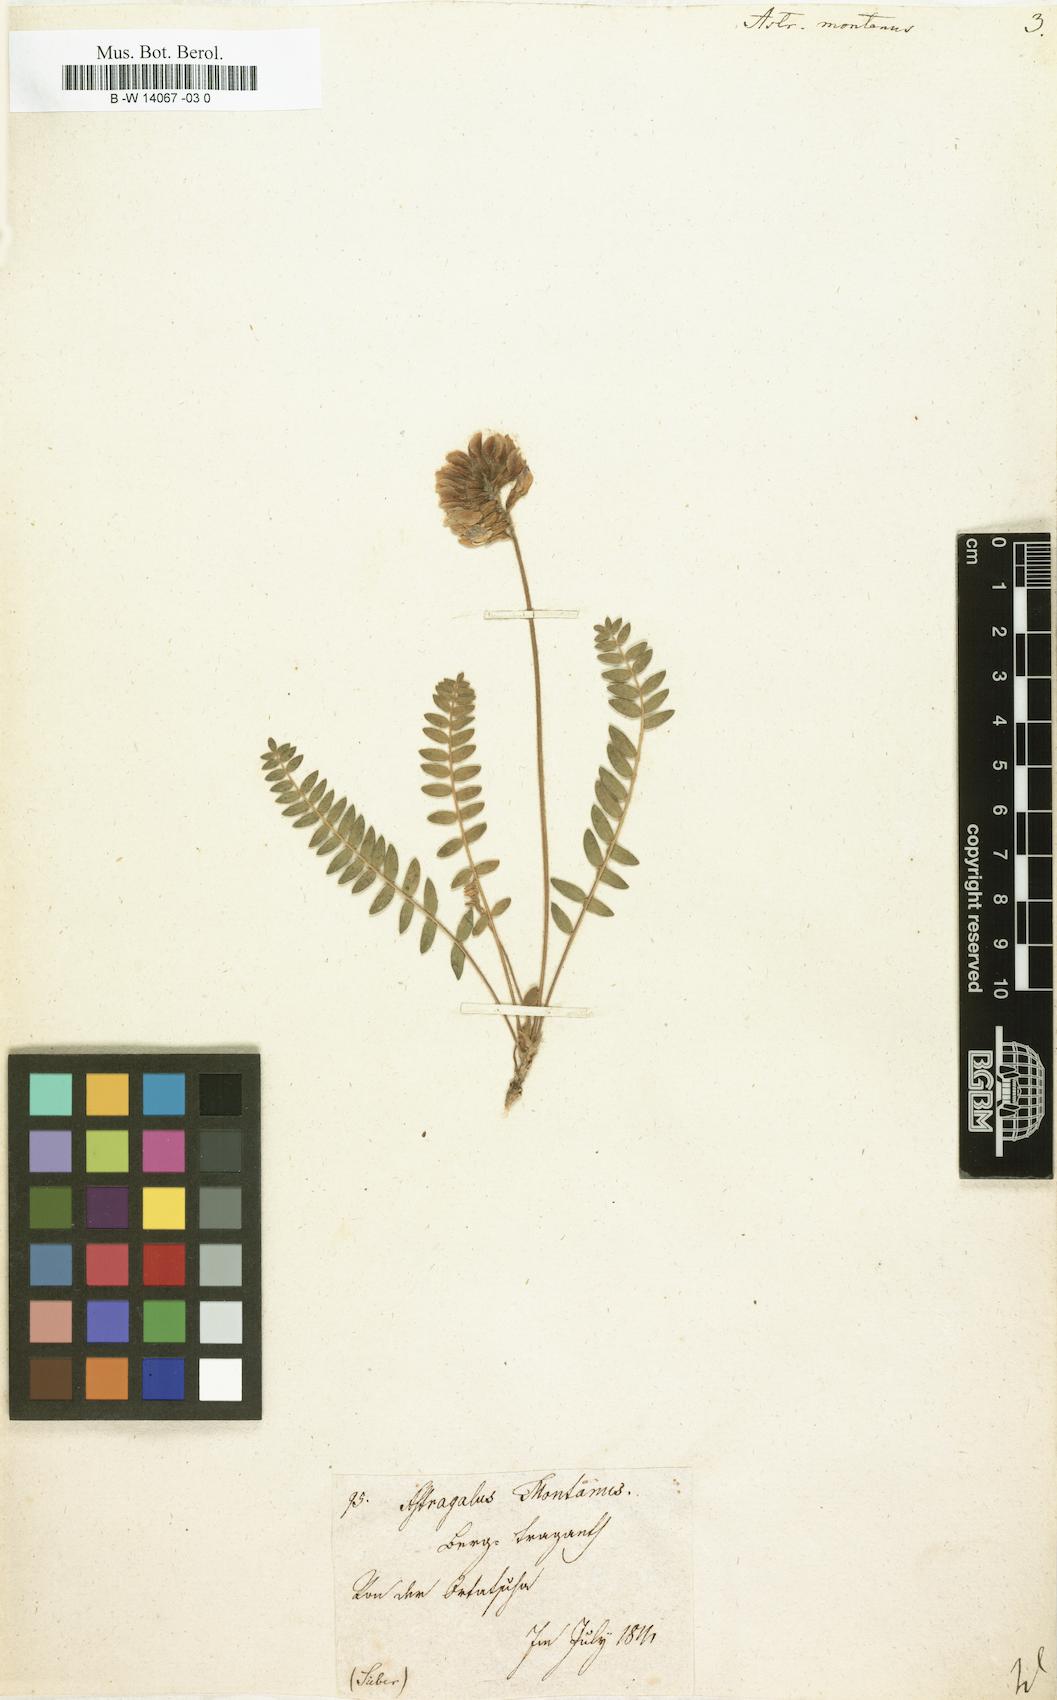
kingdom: Plantae
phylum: Tracheophyta
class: Magnoliopsida
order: Fabales
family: Fabaceae
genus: Astragalus
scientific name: Astragalus montanus
